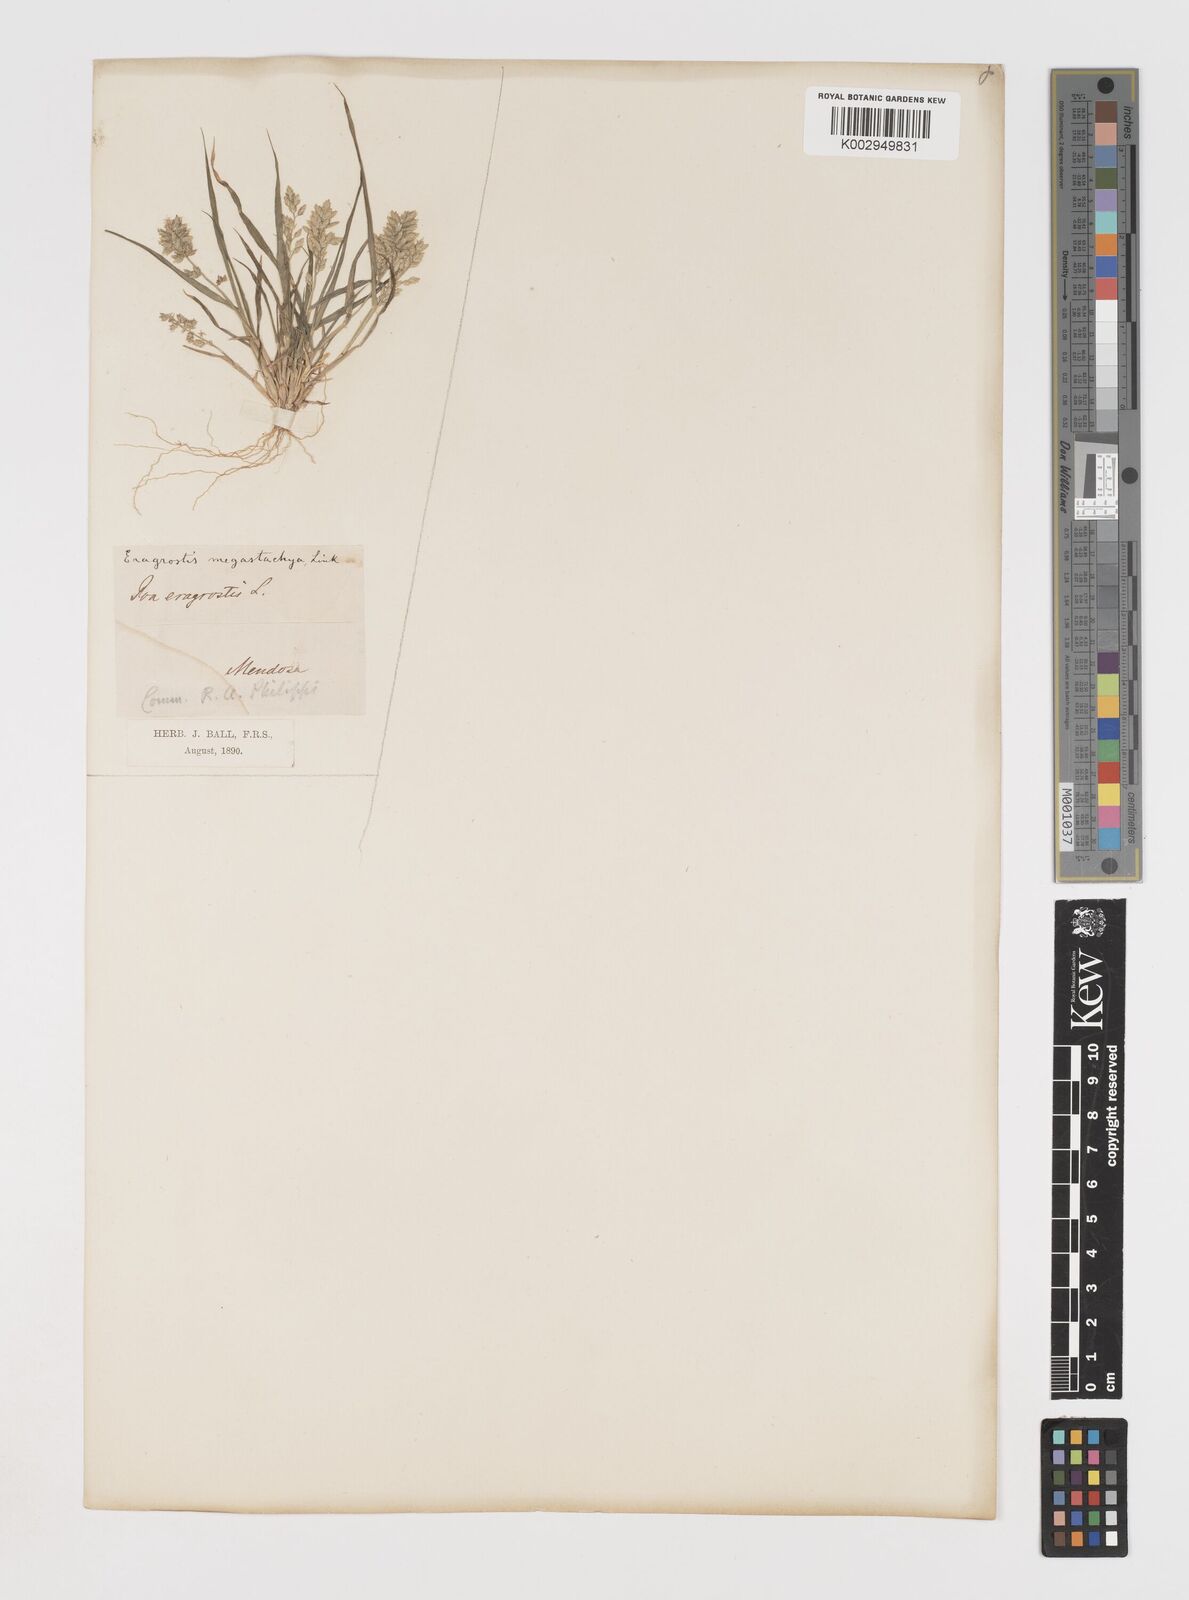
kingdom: Plantae
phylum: Tracheophyta
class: Liliopsida
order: Poales
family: Poaceae
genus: Eragrostis
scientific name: Eragrostis cilianensis
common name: Stinkgrass
